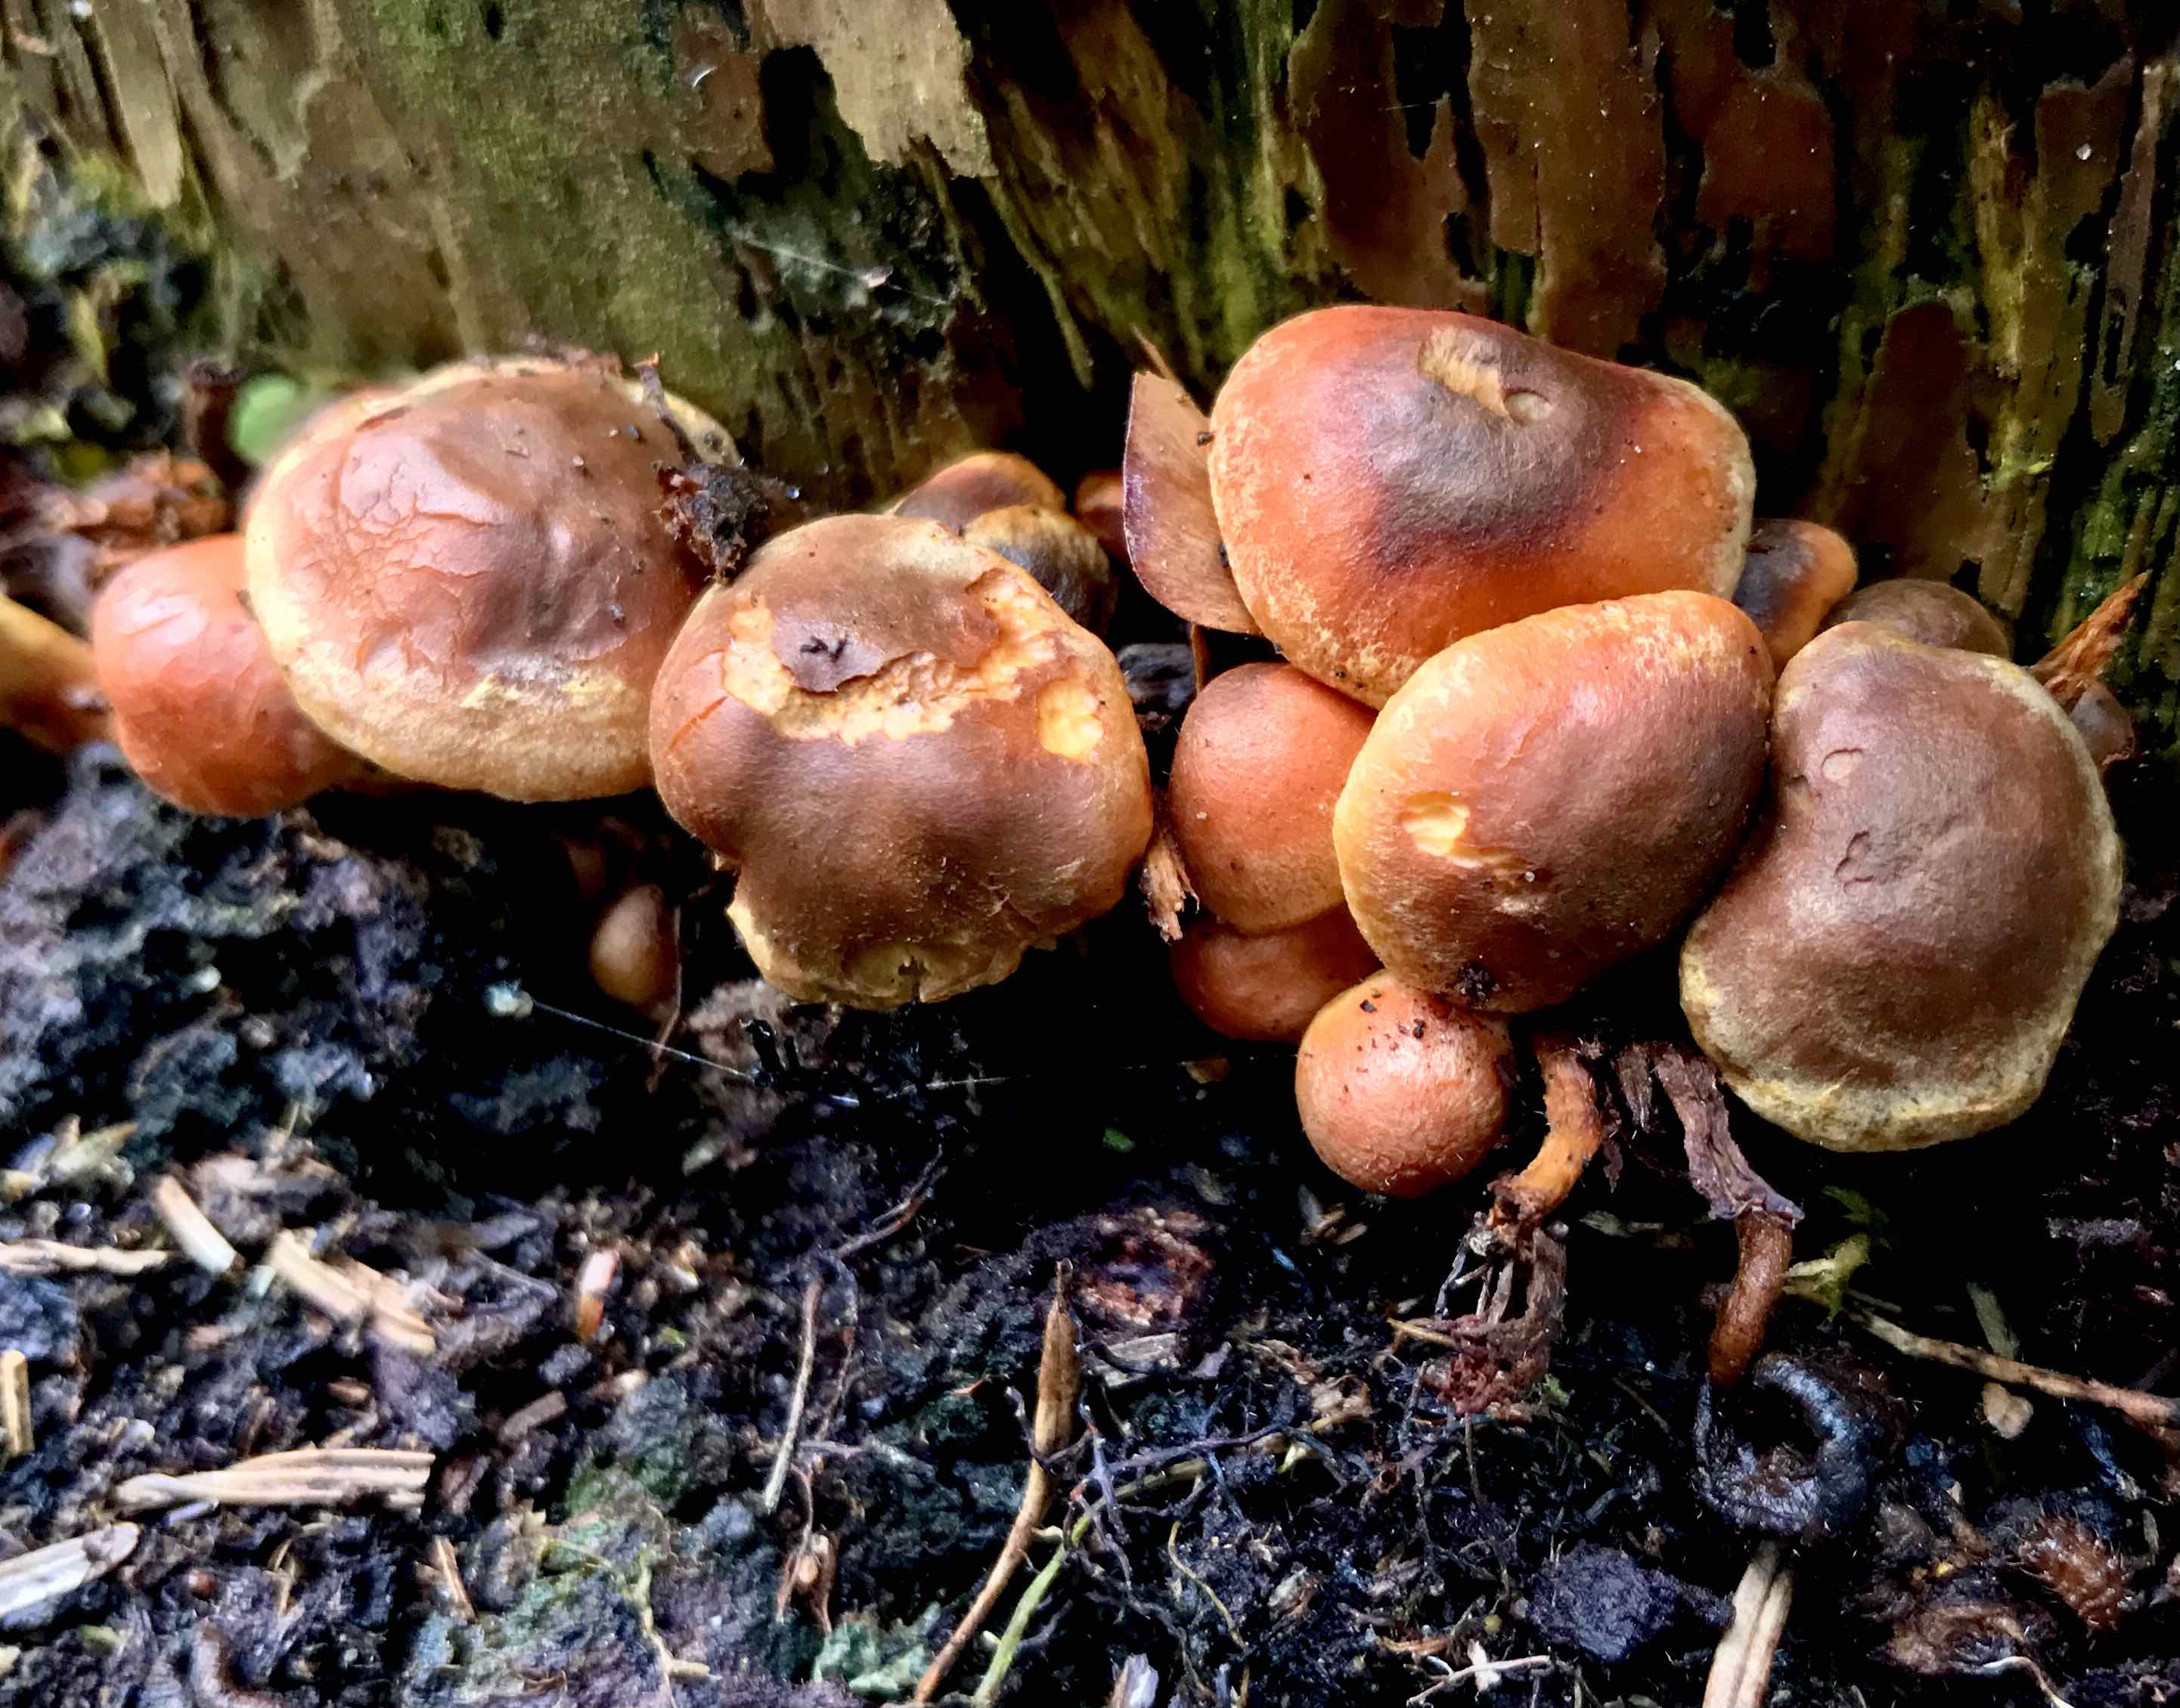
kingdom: Fungi
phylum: Basidiomycota
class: Agaricomycetes
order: Agaricales
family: Strophariaceae
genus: Hypholoma
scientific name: Hypholoma lateritium
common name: teglrød svovlhat
